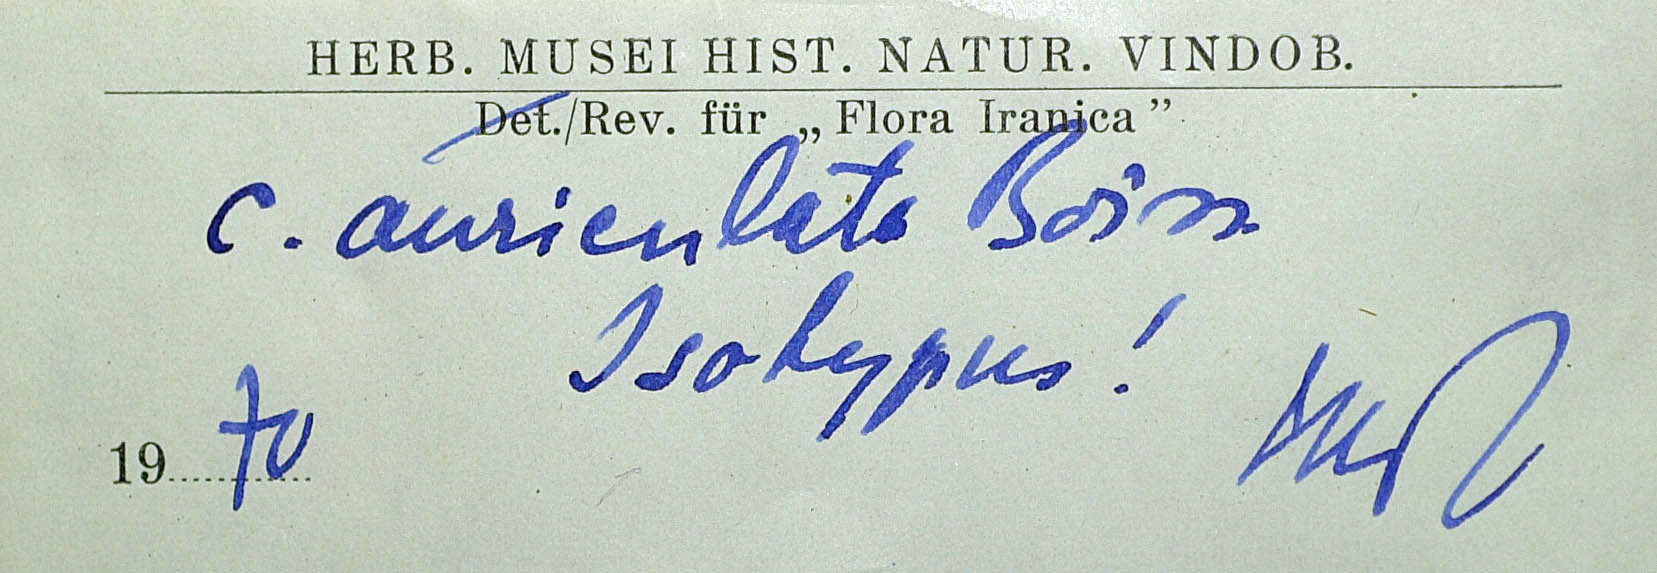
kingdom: Plantae
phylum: Tracheophyta
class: Magnoliopsida
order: Asterales
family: Asteraceae
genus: Cousinia
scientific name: Cousinia auriculata
